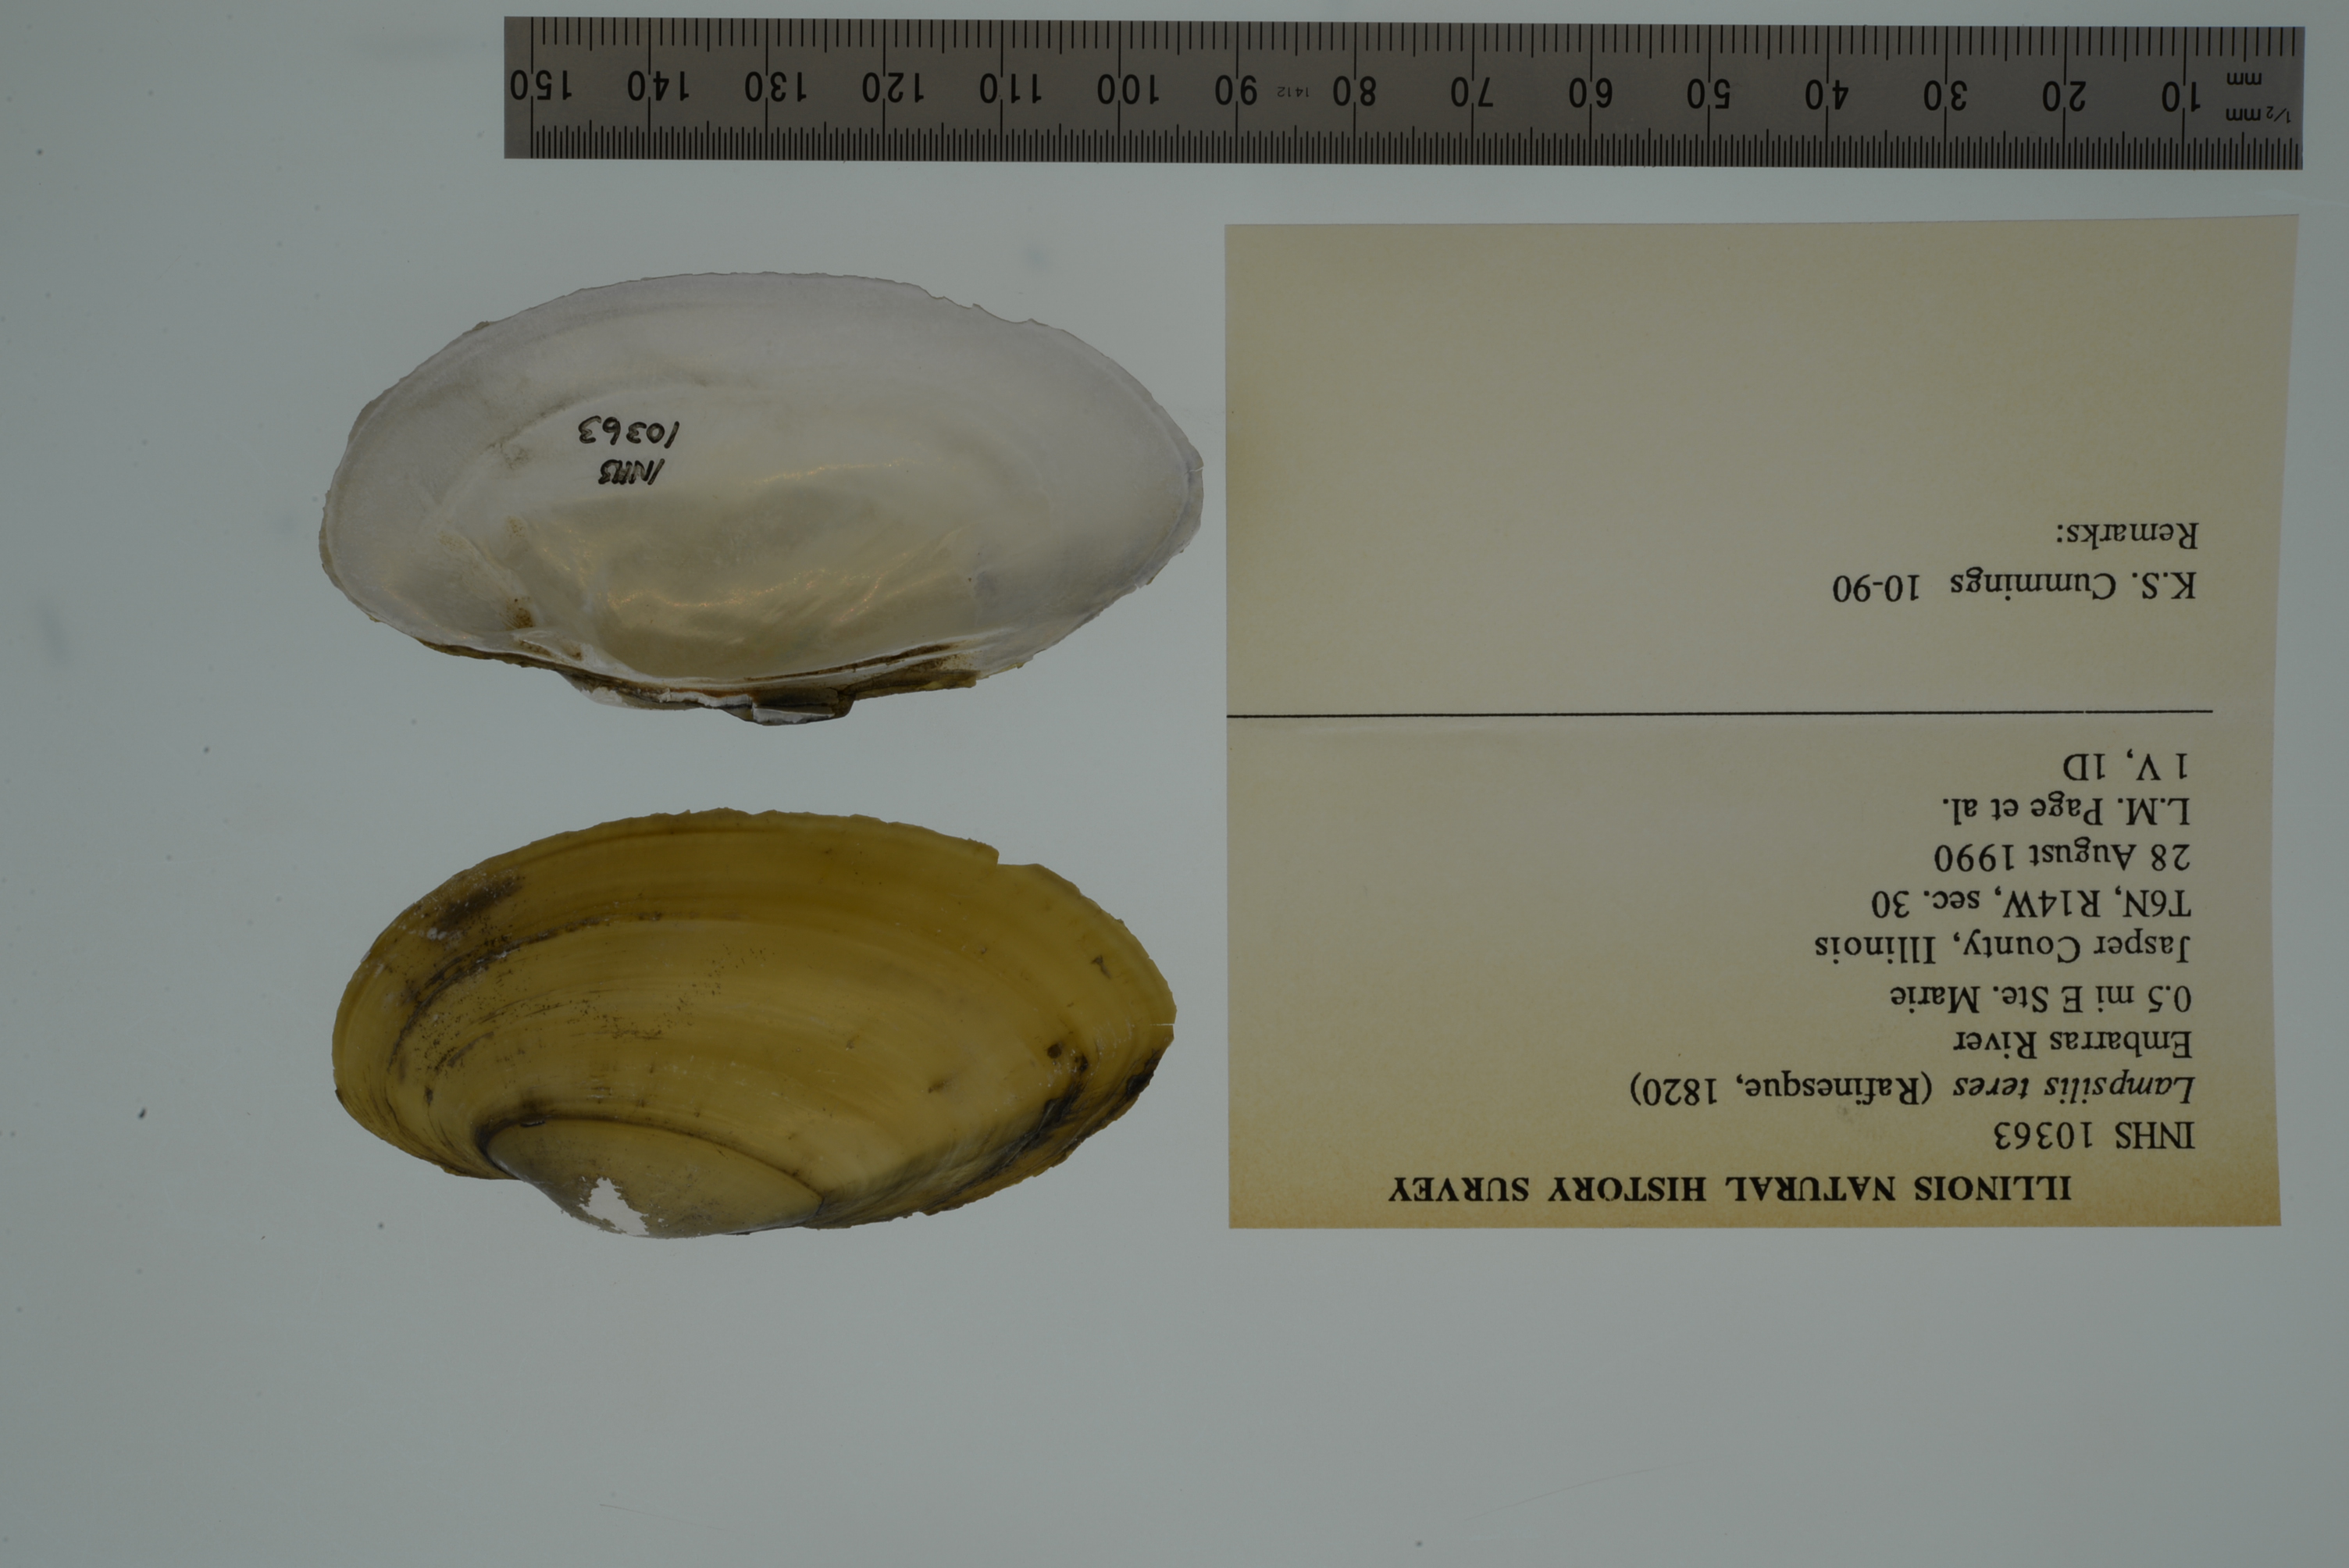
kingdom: Animalia
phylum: Mollusca
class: Bivalvia
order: Unionida
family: Unionidae
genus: Lampsilis
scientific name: Lampsilis sietmani
